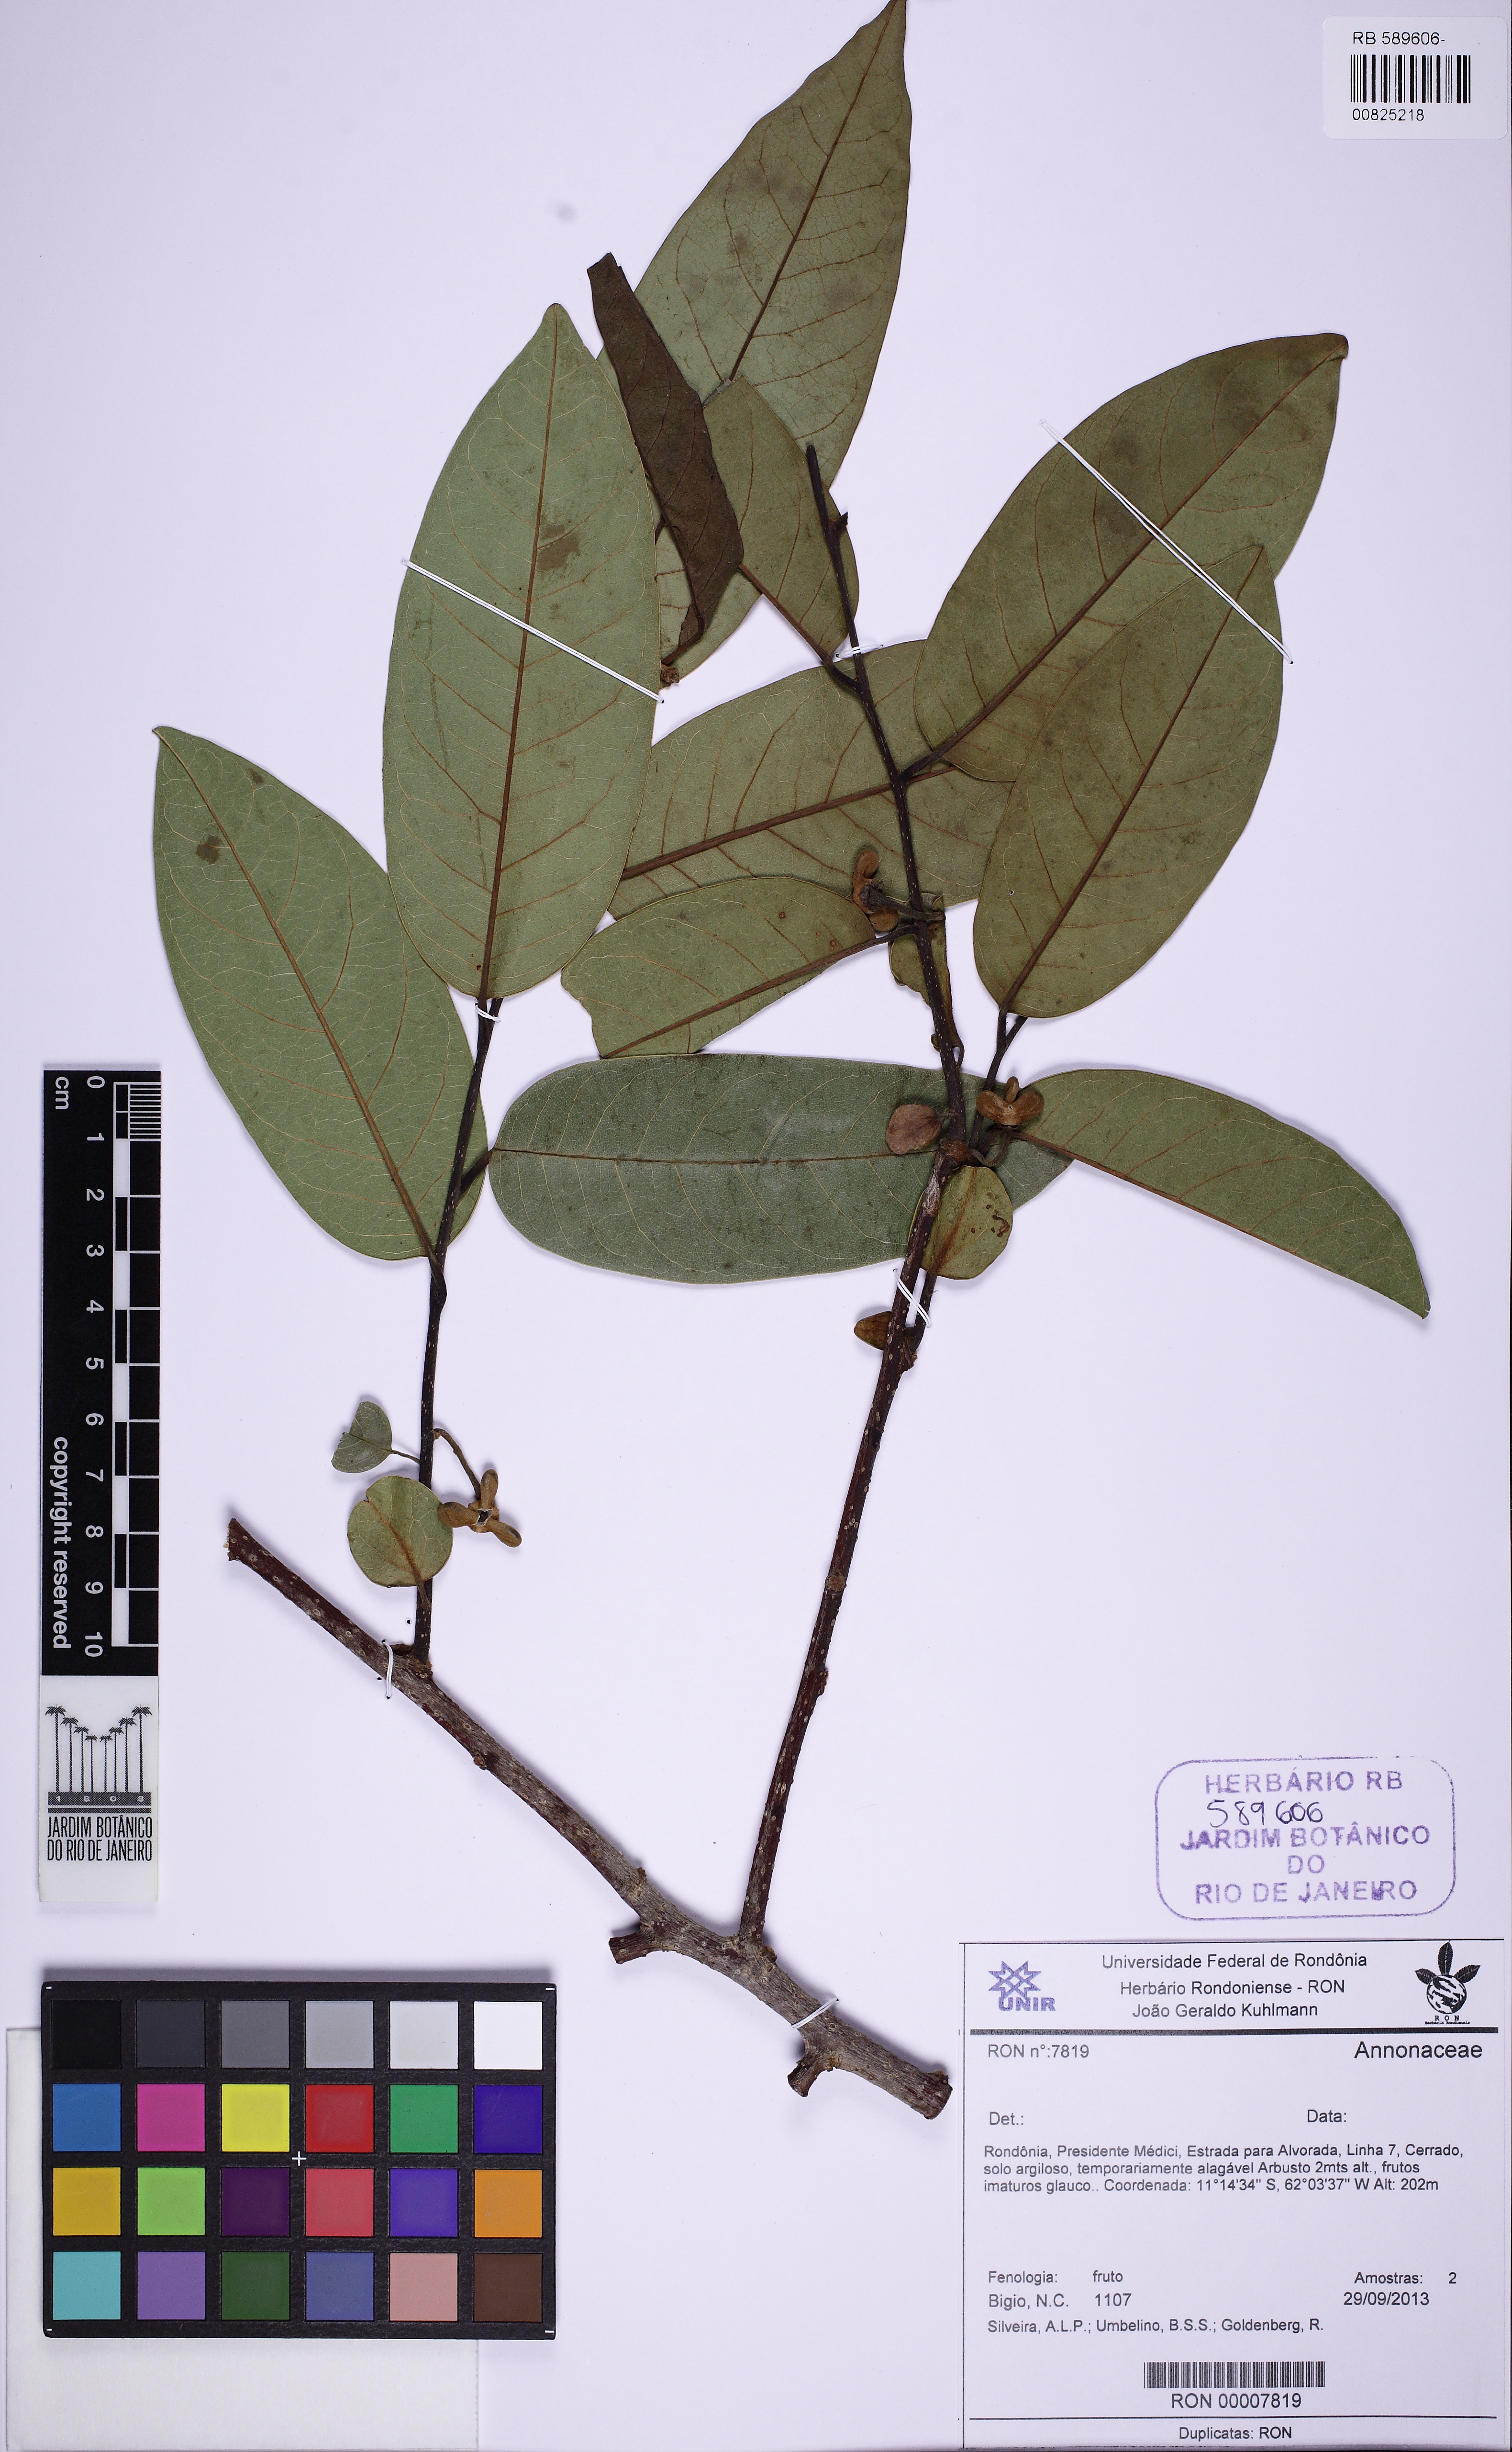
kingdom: Plantae
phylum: Tracheophyta
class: Magnoliopsida
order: Magnoliales
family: Annonaceae
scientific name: Annonaceae
